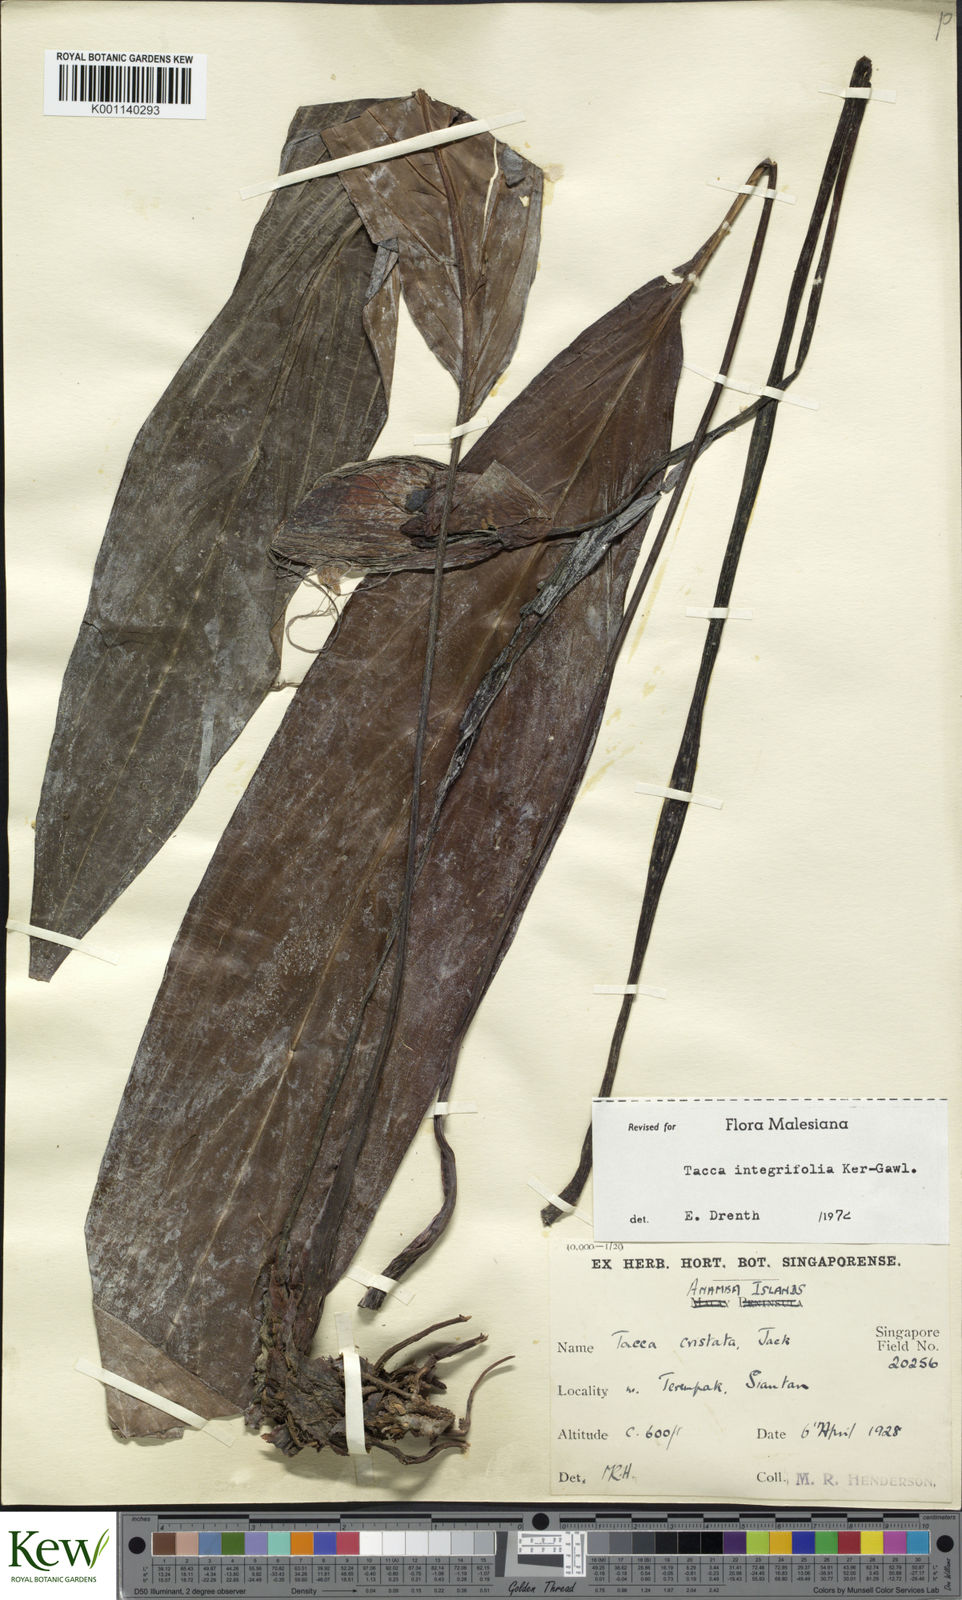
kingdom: Plantae
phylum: Tracheophyta
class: Liliopsida
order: Dioscoreales
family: Dioscoreaceae
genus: Tacca
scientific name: Tacca integrifolia
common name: Batplant
